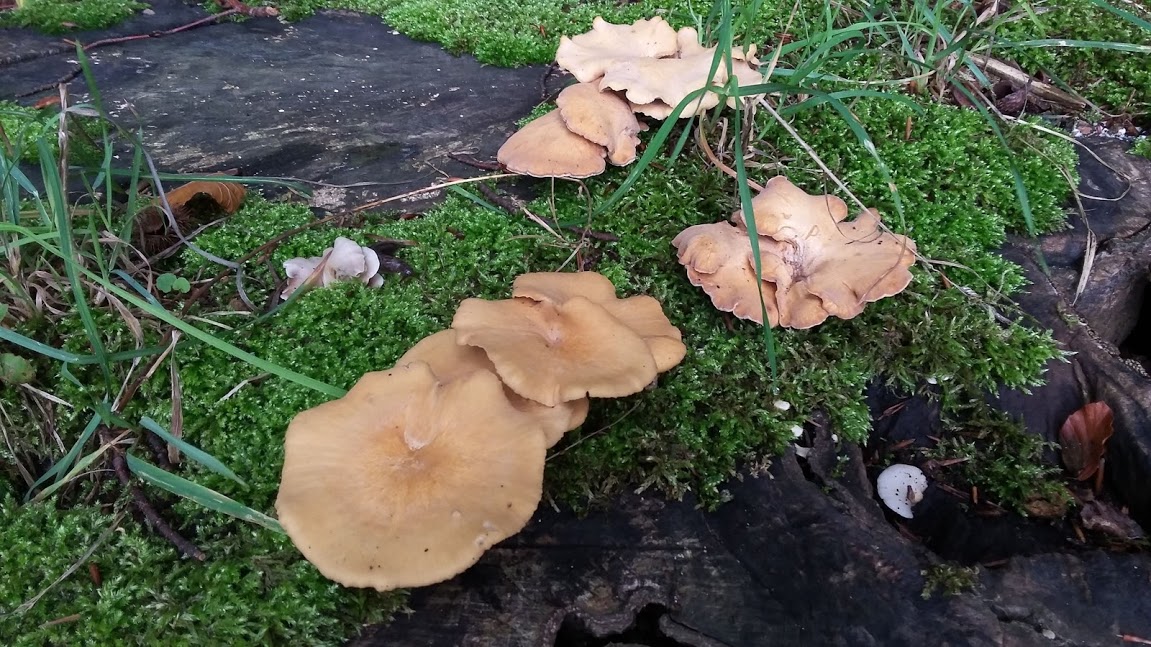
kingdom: Fungi
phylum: Basidiomycota
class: Agaricomycetes
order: Polyporales
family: Polyporaceae
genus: Cerioporus
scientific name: Cerioporus varius
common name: foranderlig stilkporesvamp
